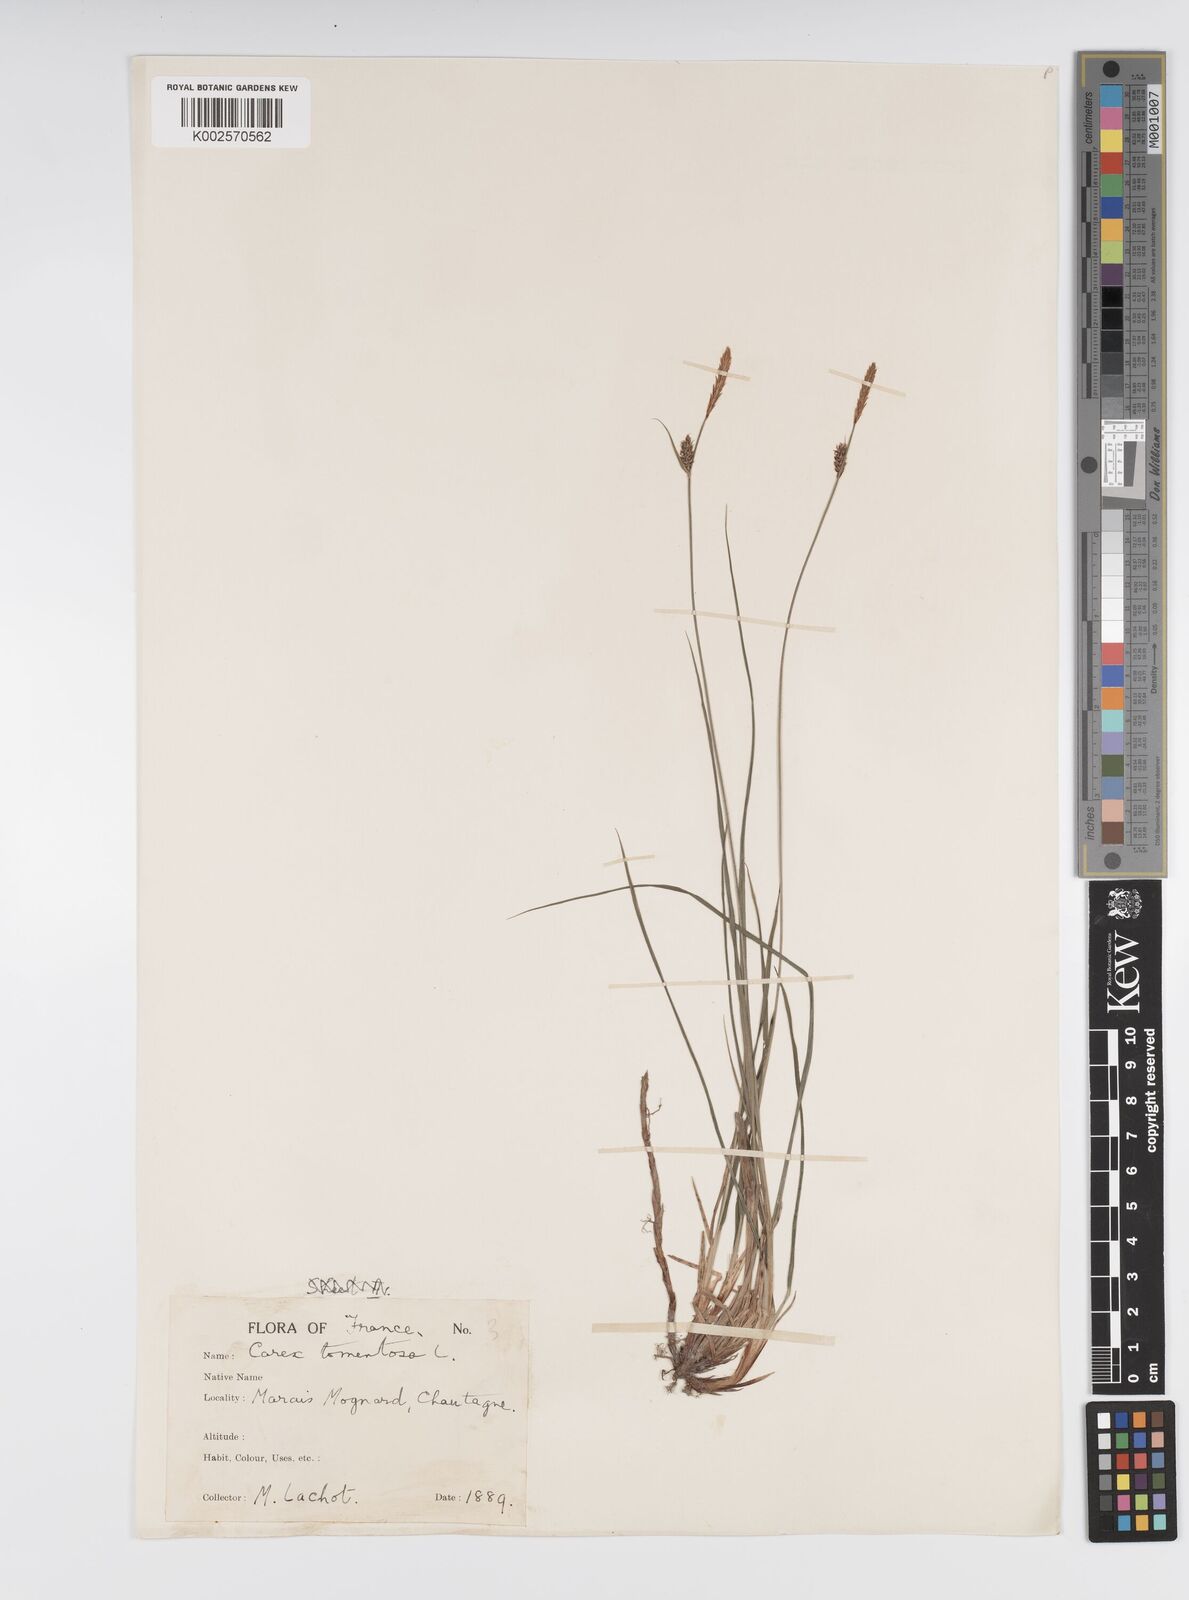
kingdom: Plantae
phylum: Tracheophyta
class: Liliopsida
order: Poales
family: Cyperaceae
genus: Carex
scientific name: Carex montana
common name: Soft-leaved sedge
